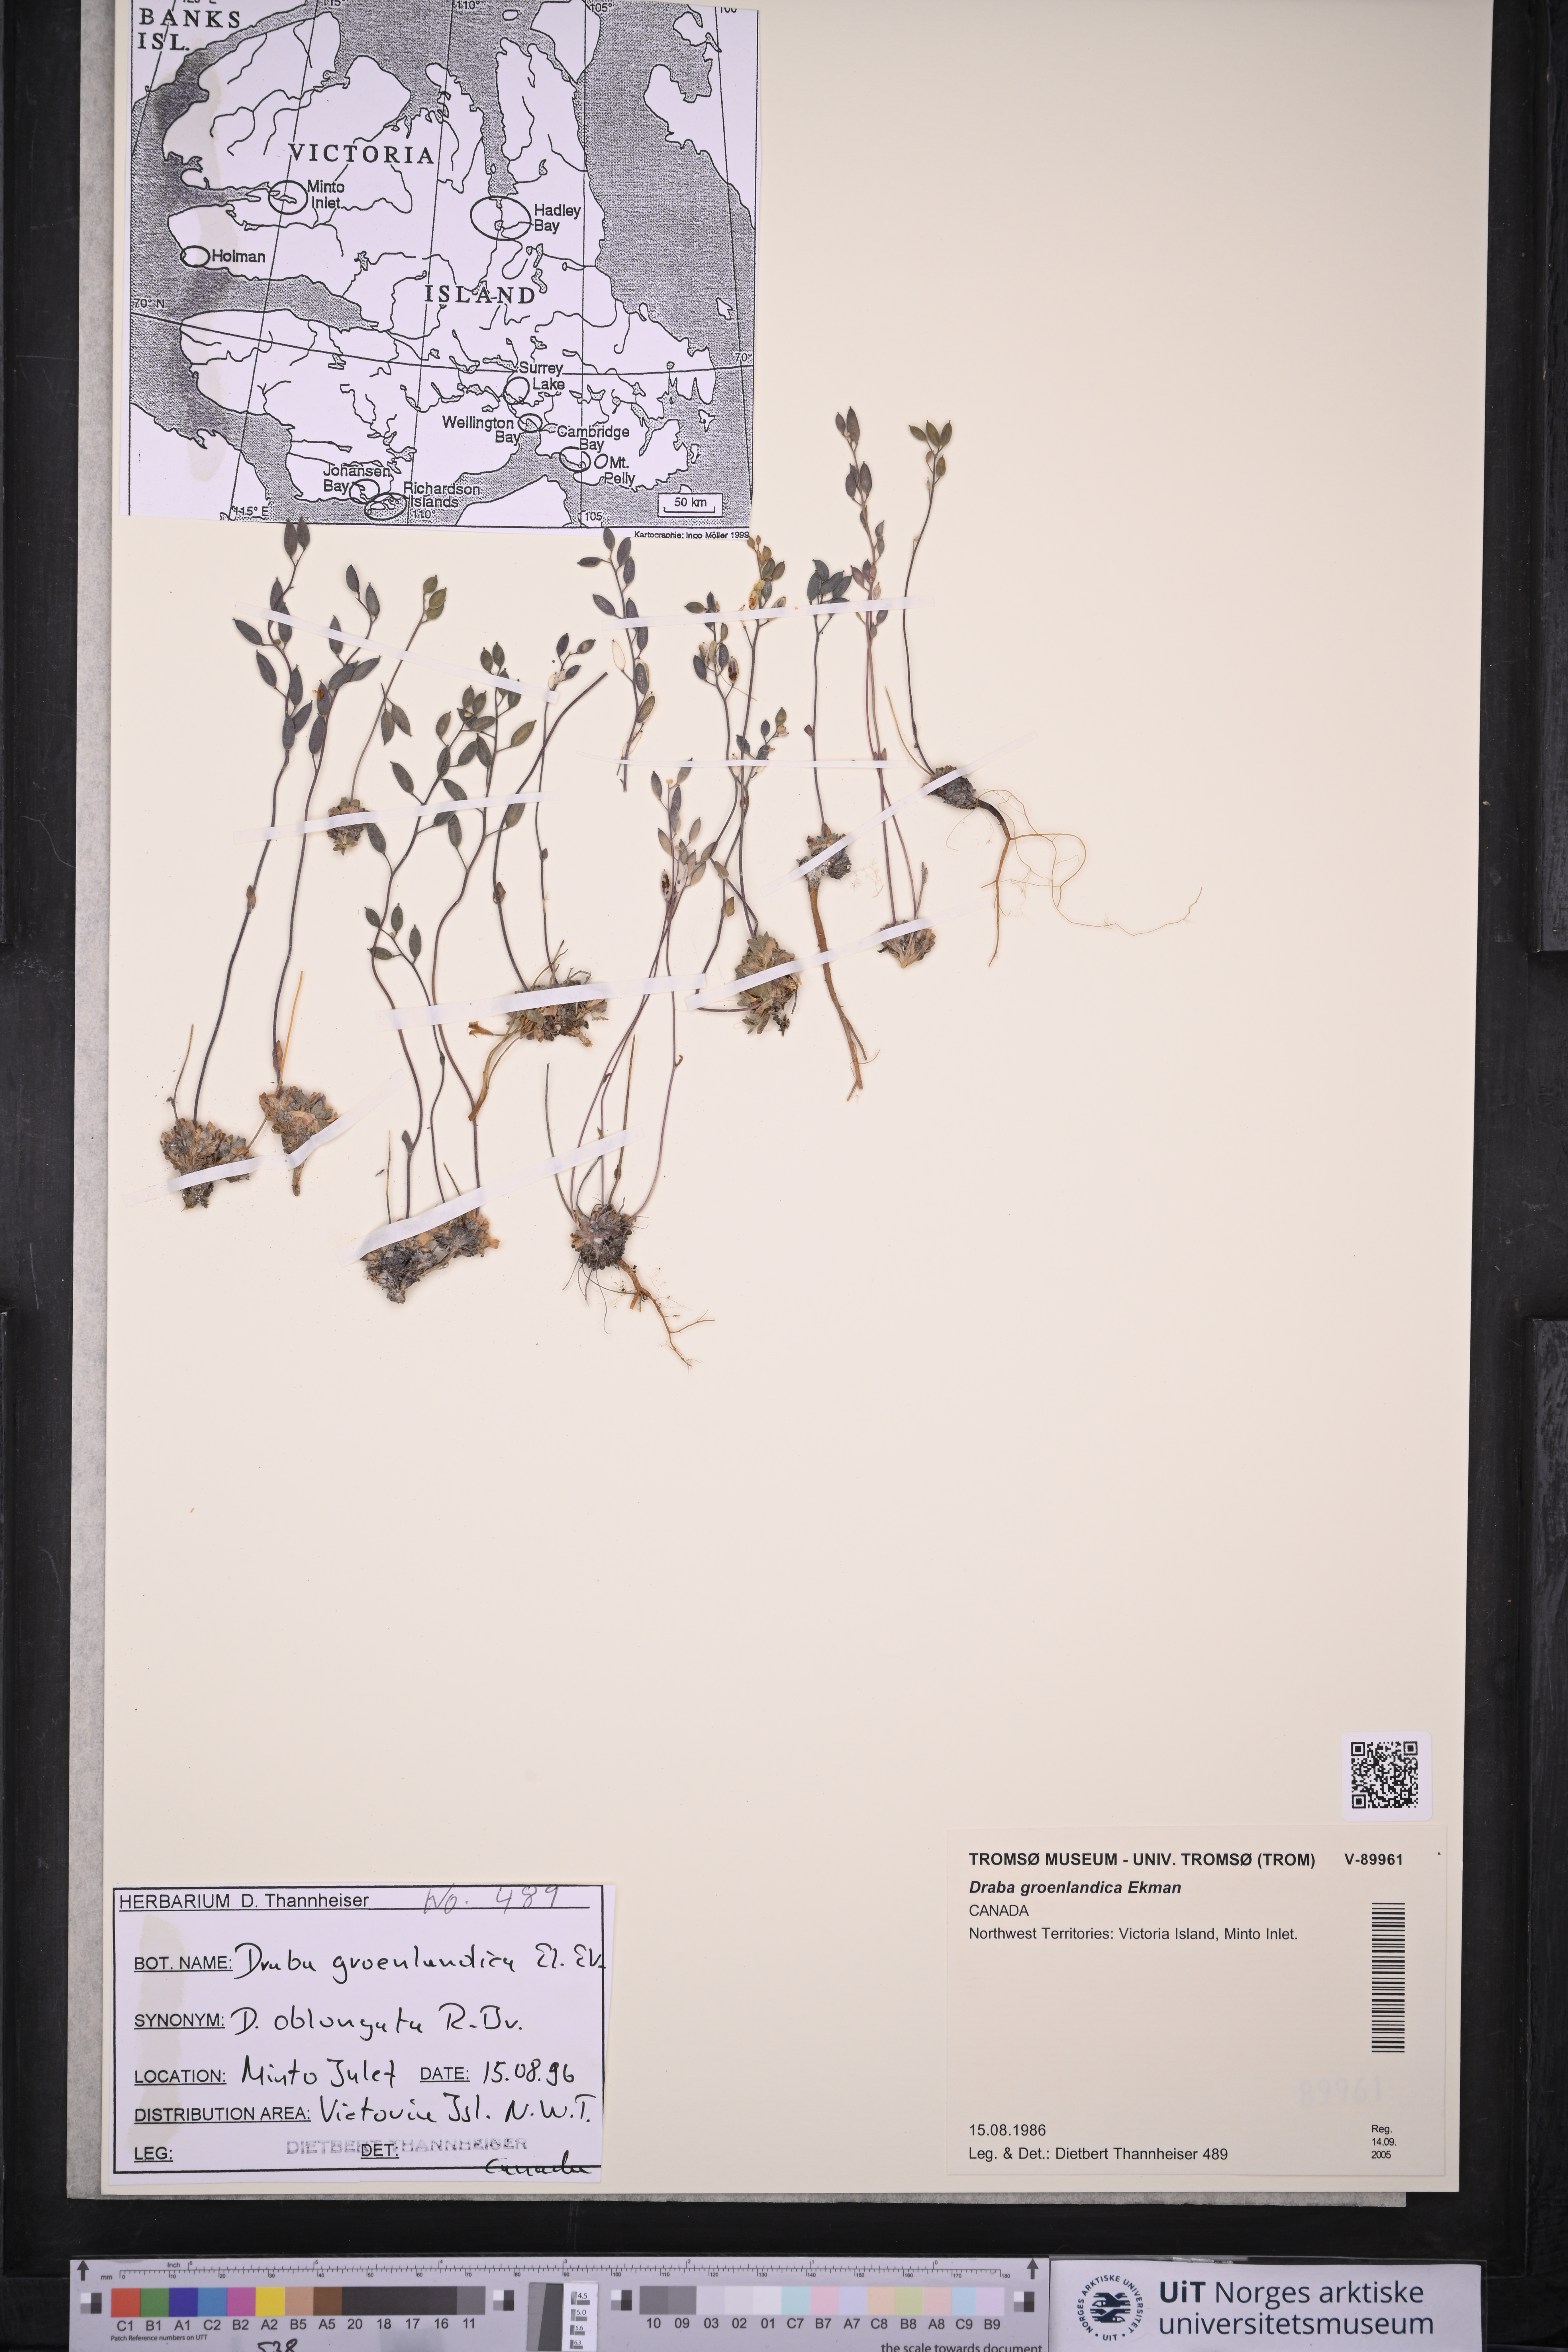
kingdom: Plantae
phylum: Tracheophyta
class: Magnoliopsida
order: Brassicales
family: Brassicaceae
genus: Draba
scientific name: Draba oblongata
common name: Canadian arctic draba
